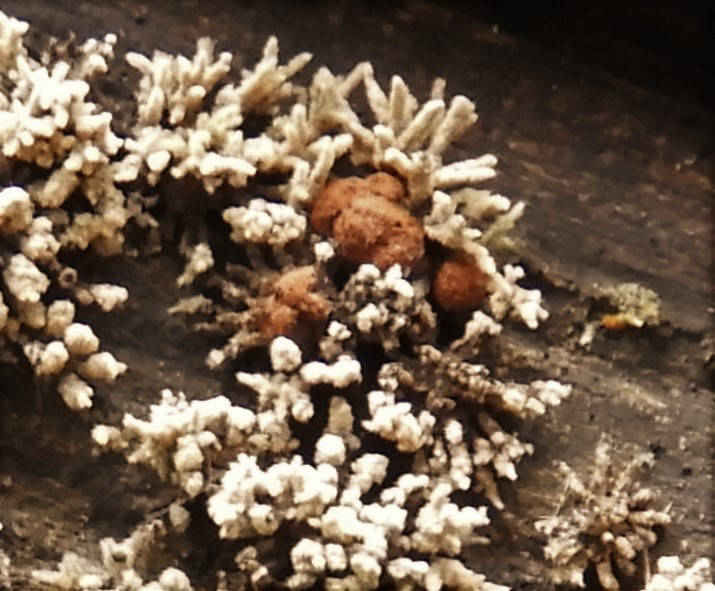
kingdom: Fungi
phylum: Ascomycota
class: Sordariomycetes
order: Xylariales
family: Hypoxylaceae
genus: Hypoxylon
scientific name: Hypoxylon howeanum
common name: halvkugleformet kulbær
